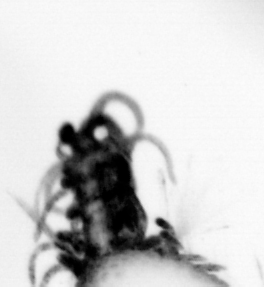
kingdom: Animalia
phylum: Annelida
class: Polychaeta
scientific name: Polychaeta
